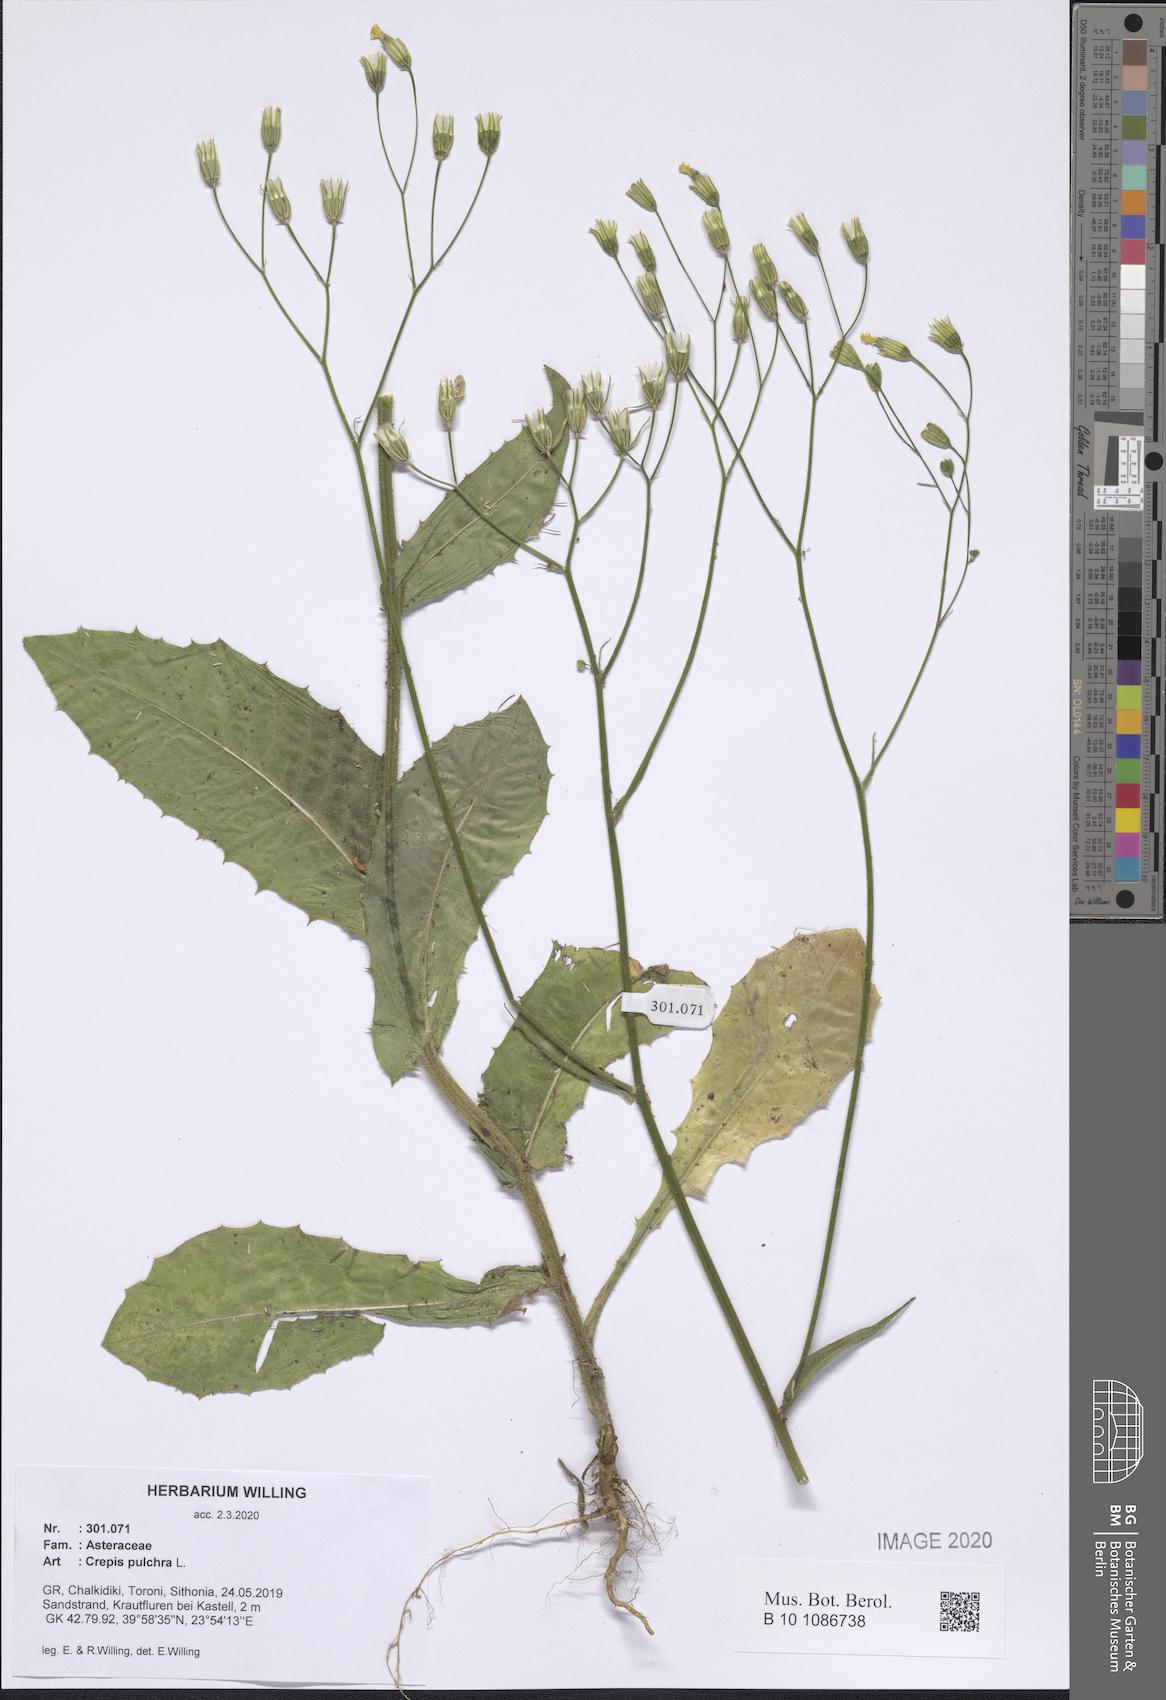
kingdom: Plantae
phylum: Tracheophyta
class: Magnoliopsida
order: Asterales
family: Asteraceae
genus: Crepis
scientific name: Crepis pulchra
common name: Hawk's-beard
